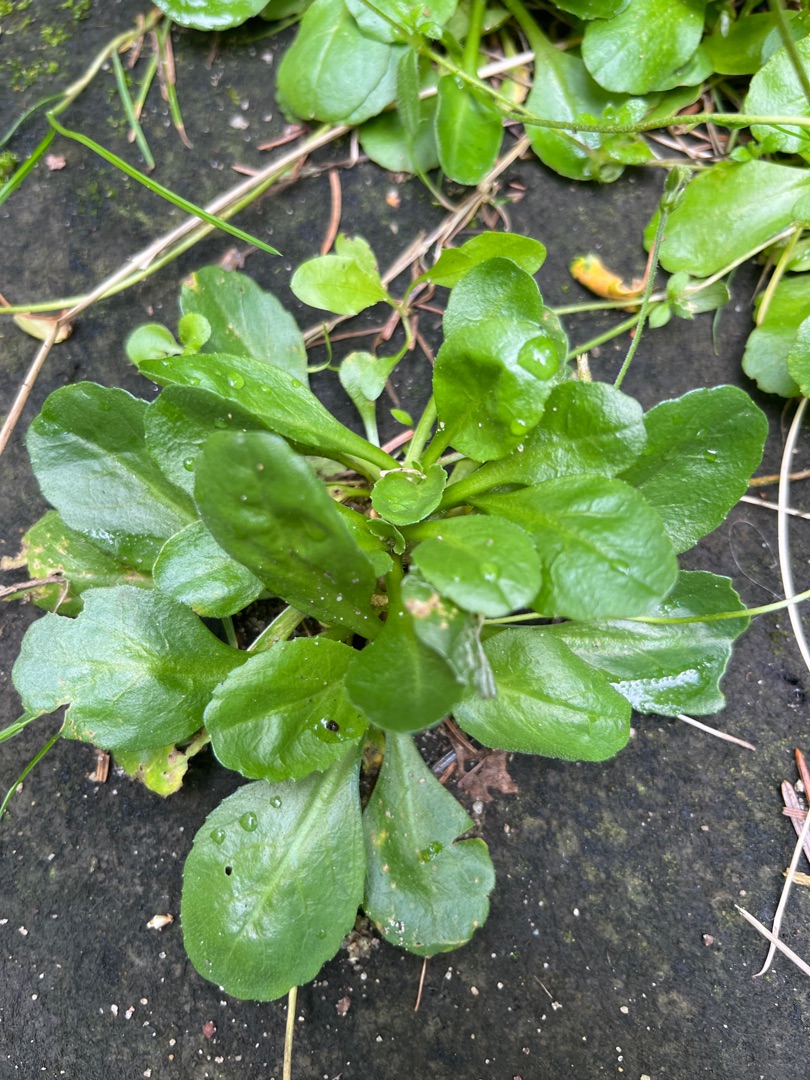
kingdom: Plantae
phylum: Tracheophyta
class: Magnoliopsida
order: Asterales
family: Asteraceae
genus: Bellis
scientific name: Bellis perennis
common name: Tusindfryd
